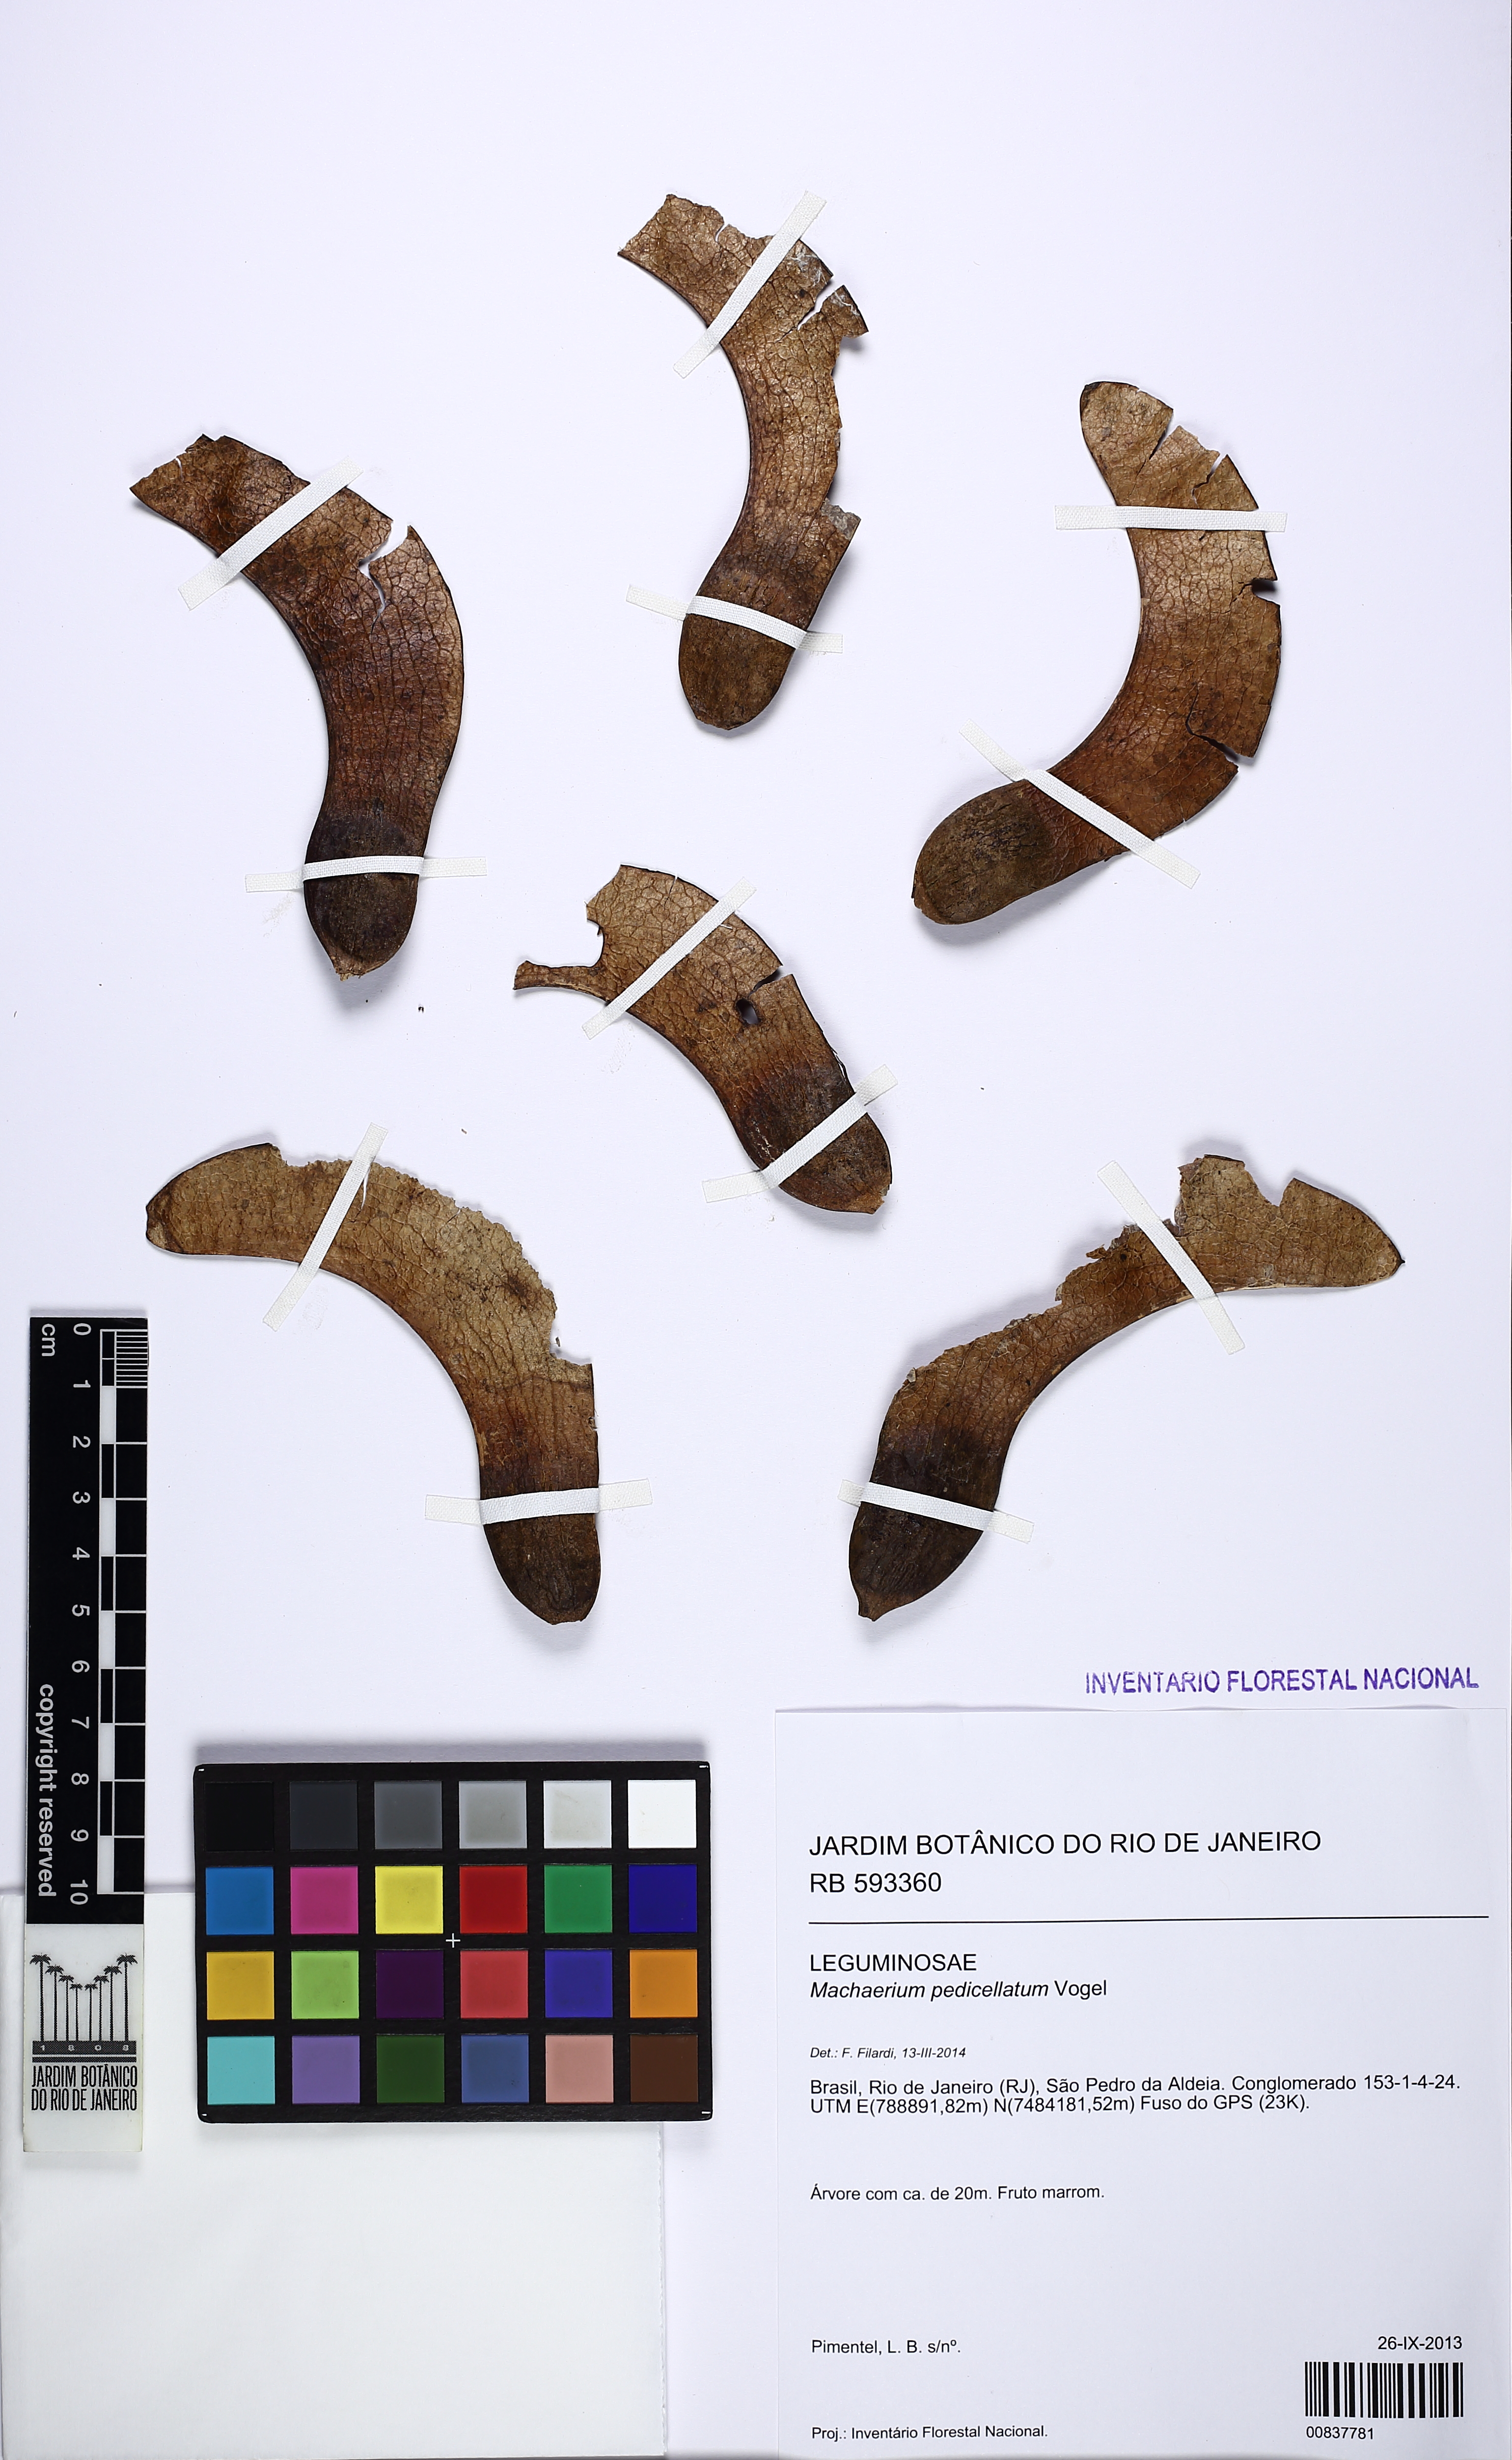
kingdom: Plantae
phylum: Tracheophyta
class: Magnoliopsida
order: Fabales
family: Fabaceae
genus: Machaerium
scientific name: Machaerium pedicellatum
